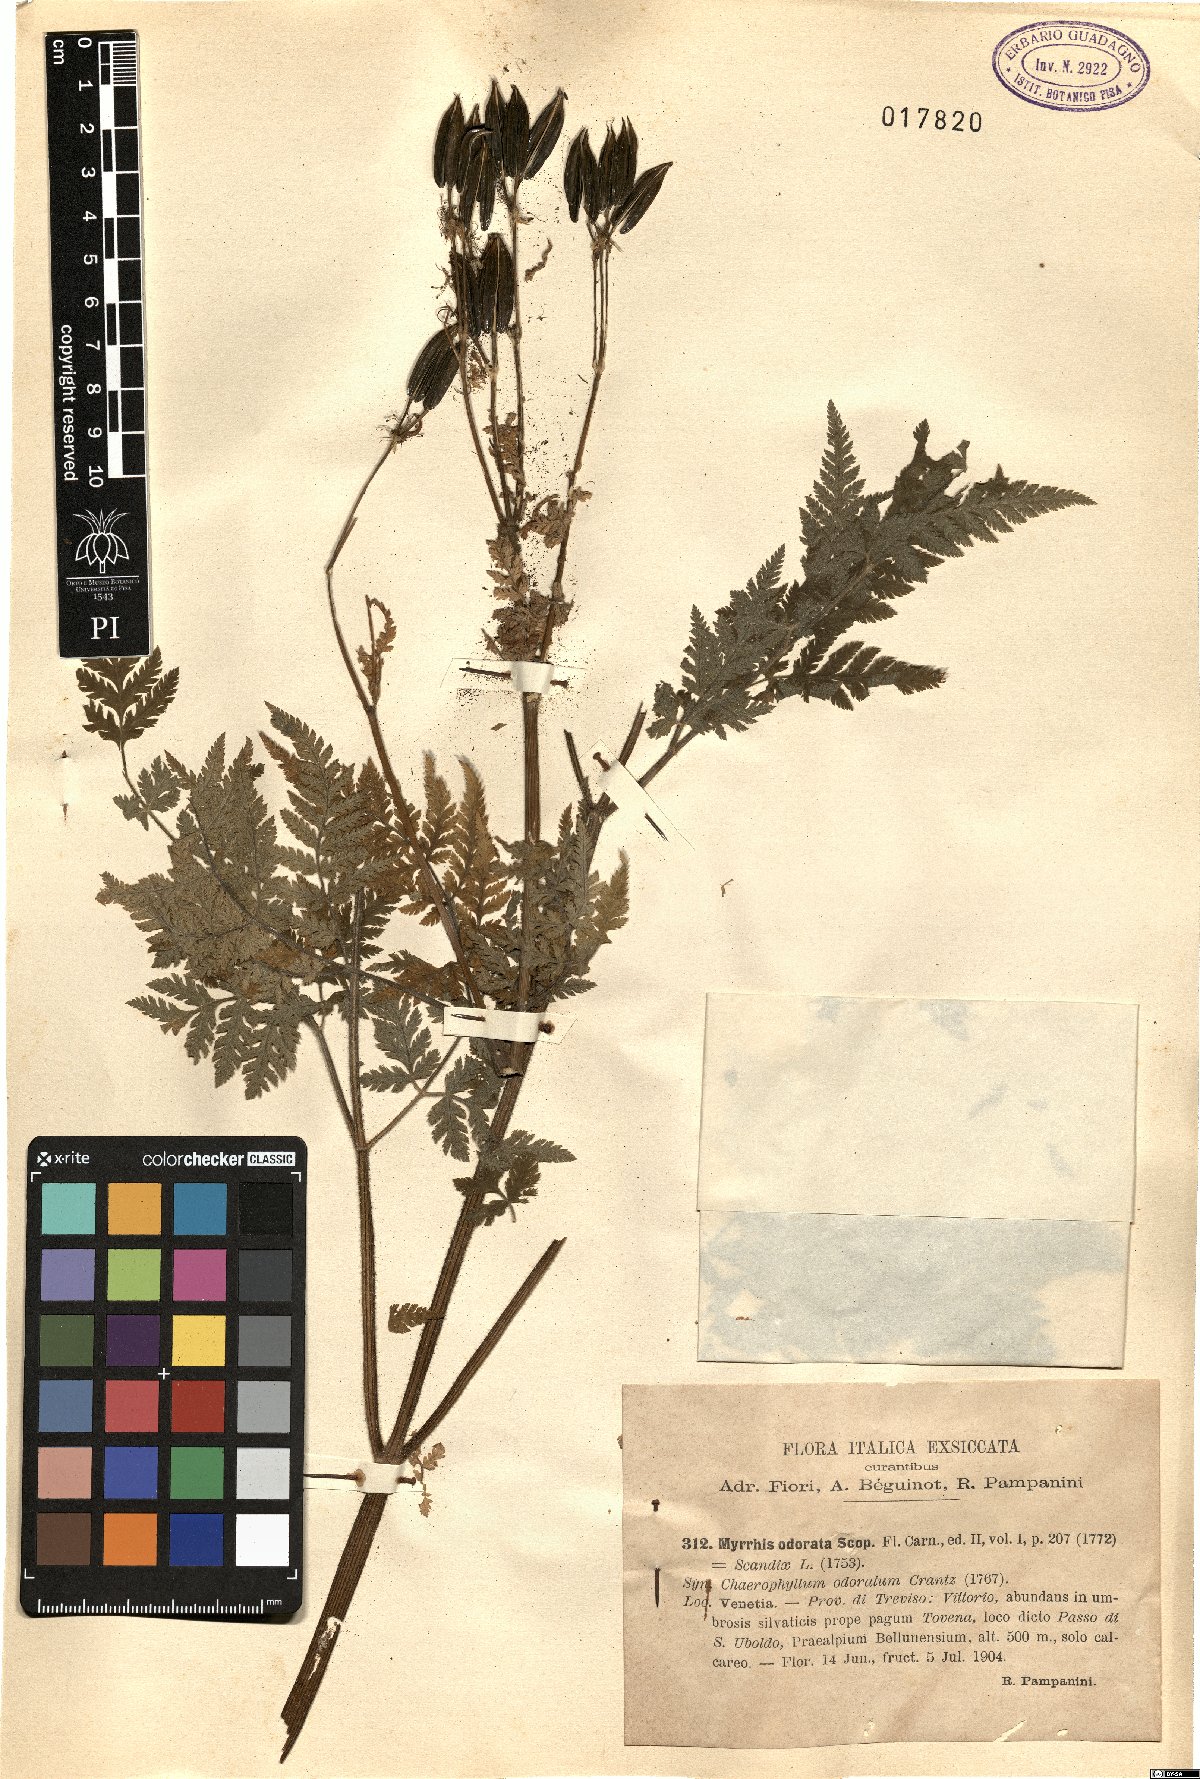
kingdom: Plantae
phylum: Tracheophyta
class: Magnoliopsida
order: Apiales
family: Apiaceae
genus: Myrrhis
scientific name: Myrrhis odorata
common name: Sweet cicely
